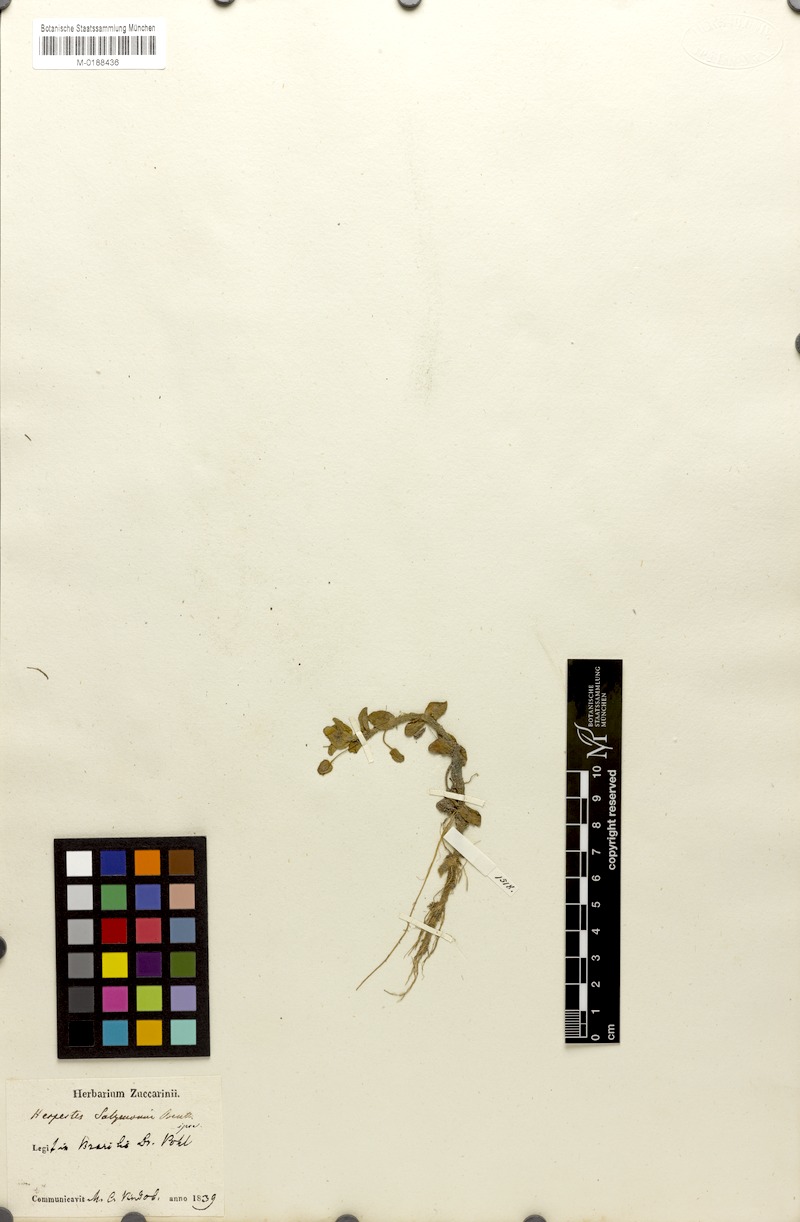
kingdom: Plantae
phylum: Tracheophyta
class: Magnoliopsida
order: Lamiales
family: Plantaginaceae
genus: Bacopa
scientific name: Bacopa salzmannii
